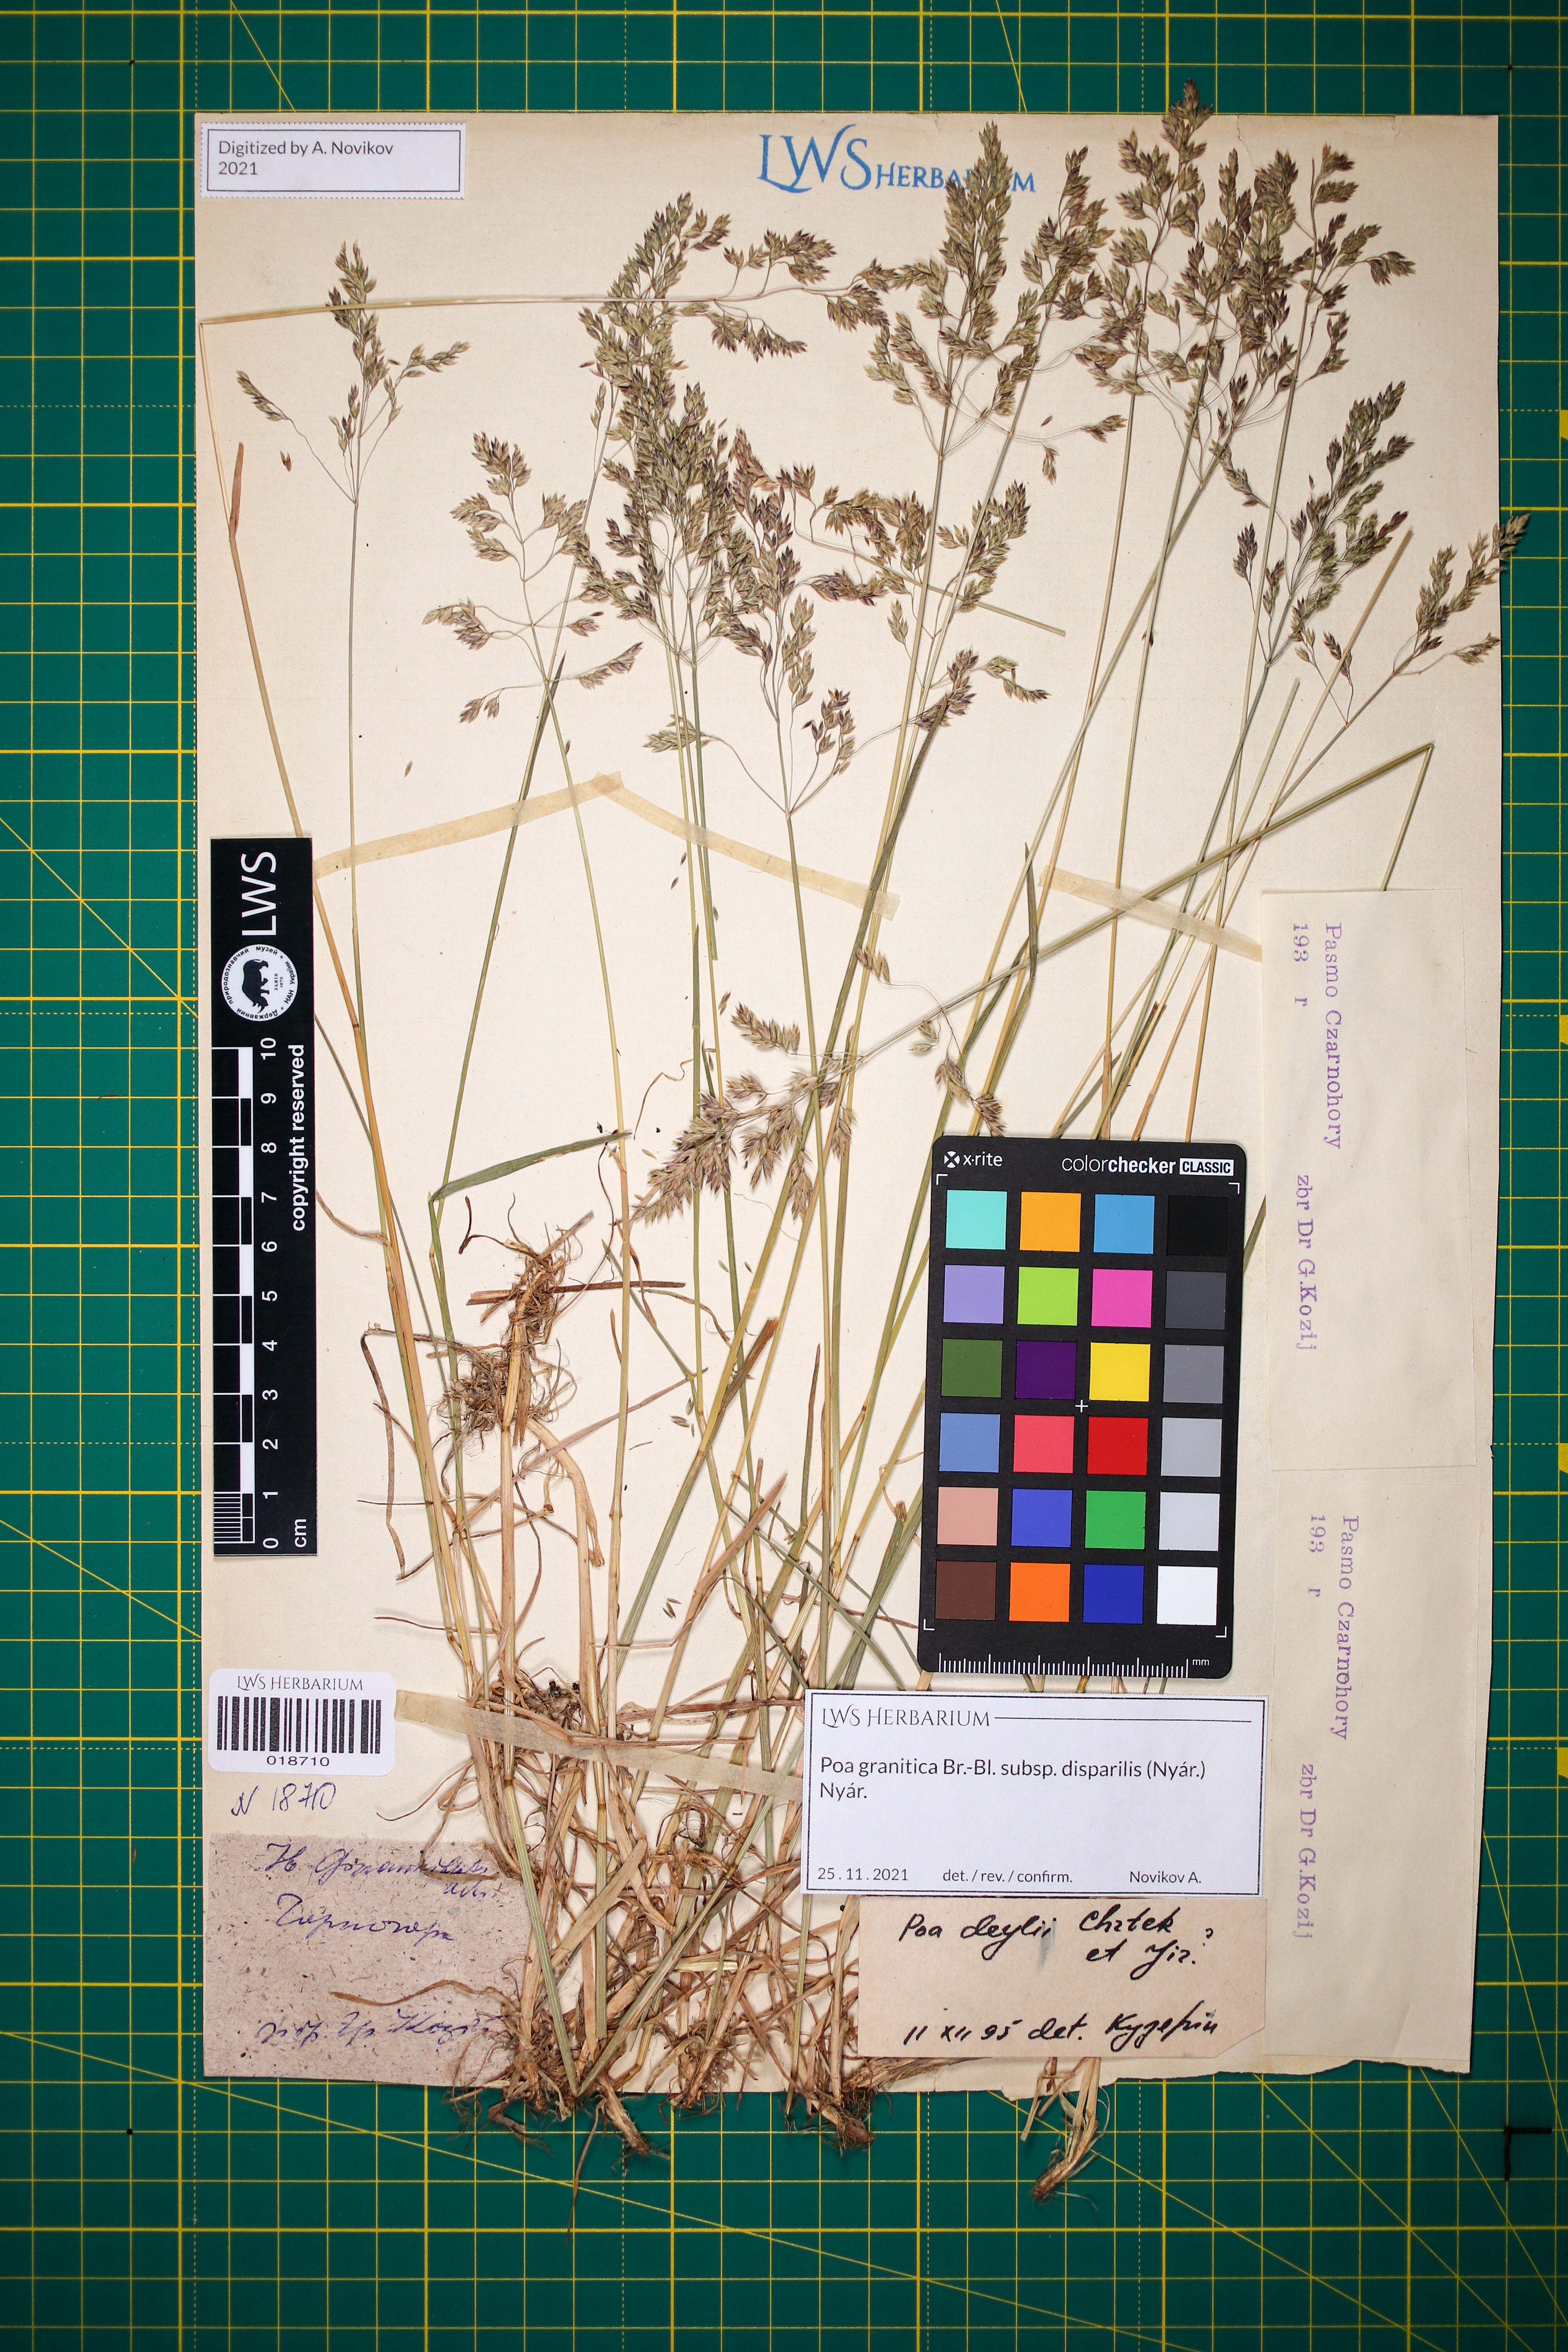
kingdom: Plantae
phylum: Tracheophyta
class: Liliopsida
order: Poales
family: Poaceae
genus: Poa
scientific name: Poa granitica
